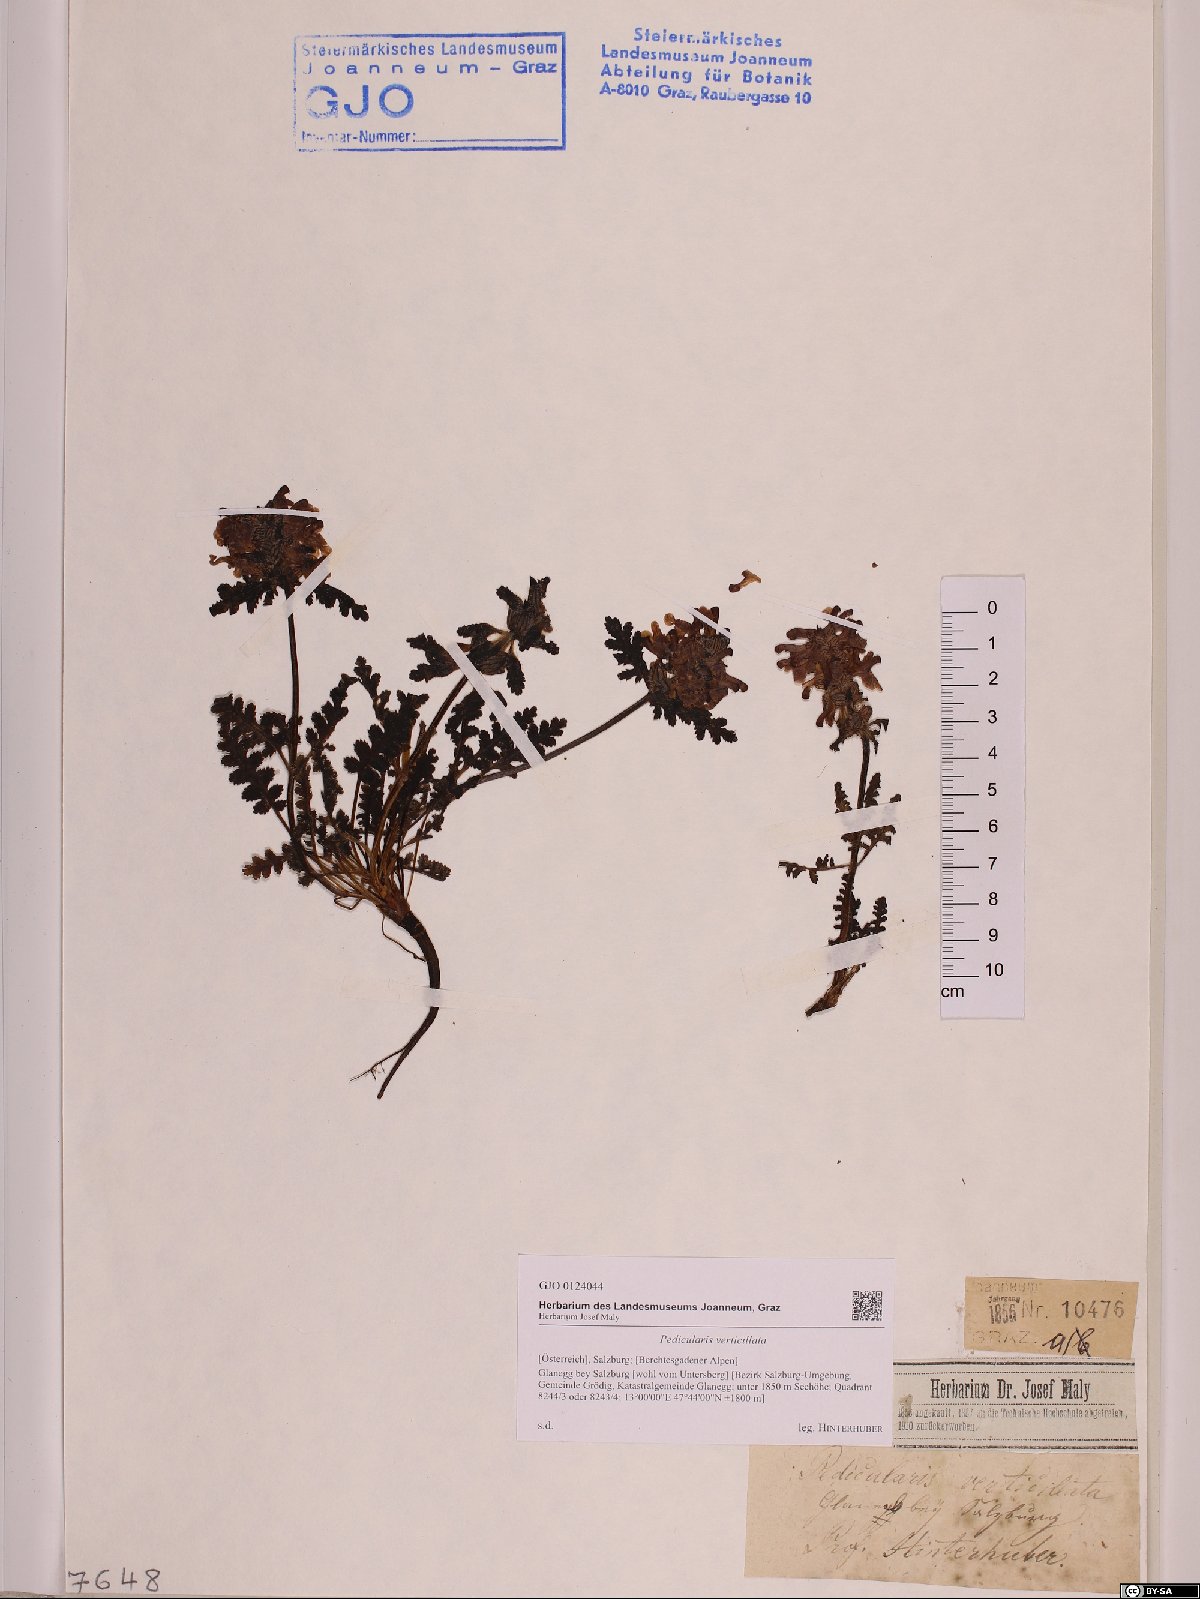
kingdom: Plantae
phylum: Tracheophyta
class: Magnoliopsida
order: Lamiales
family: Orobanchaceae
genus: Pedicularis
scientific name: Pedicularis verticillata
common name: Whorled lousewort
